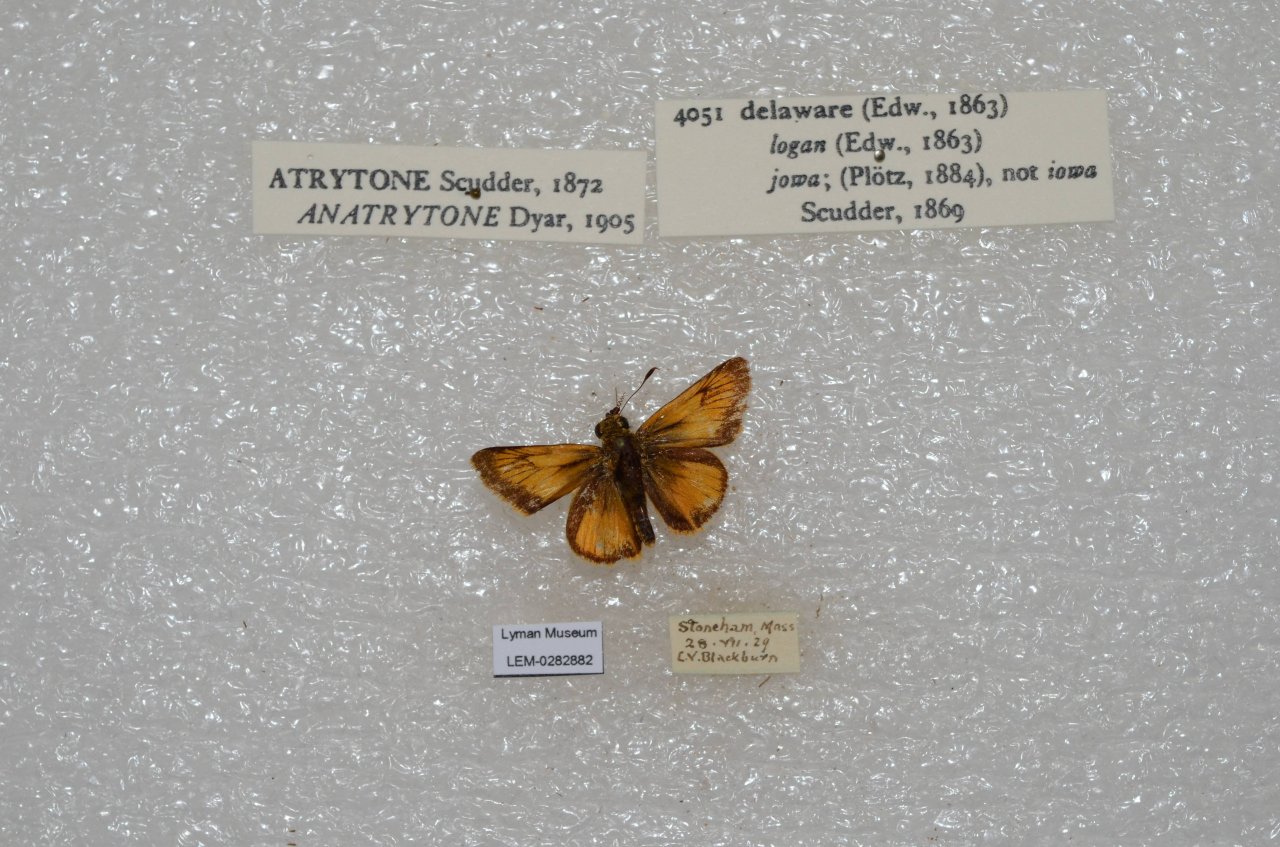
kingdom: Animalia
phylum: Arthropoda
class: Insecta
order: Lepidoptera
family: Hesperiidae
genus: Atrytone
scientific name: Atrytone delaware
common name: Delaware Skipper
